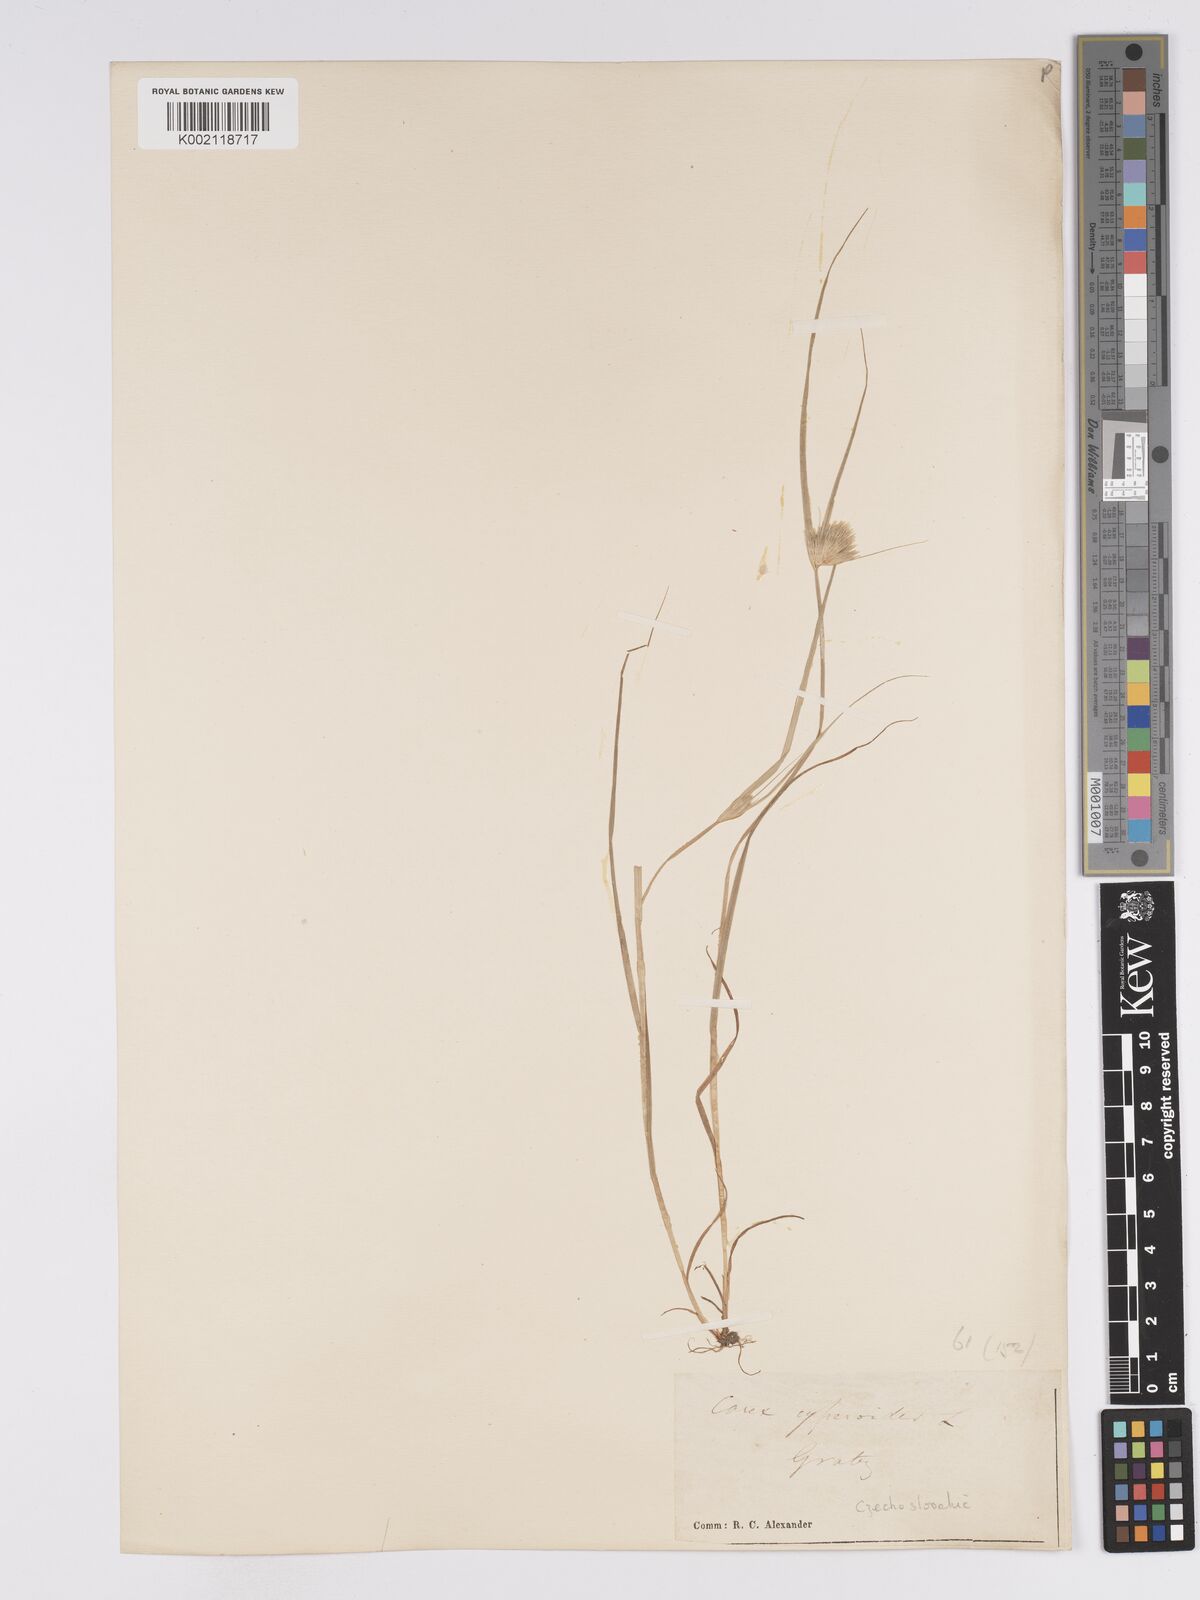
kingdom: Plantae
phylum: Tracheophyta
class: Liliopsida
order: Poales
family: Cyperaceae
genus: Carex
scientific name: Carex bohemica
